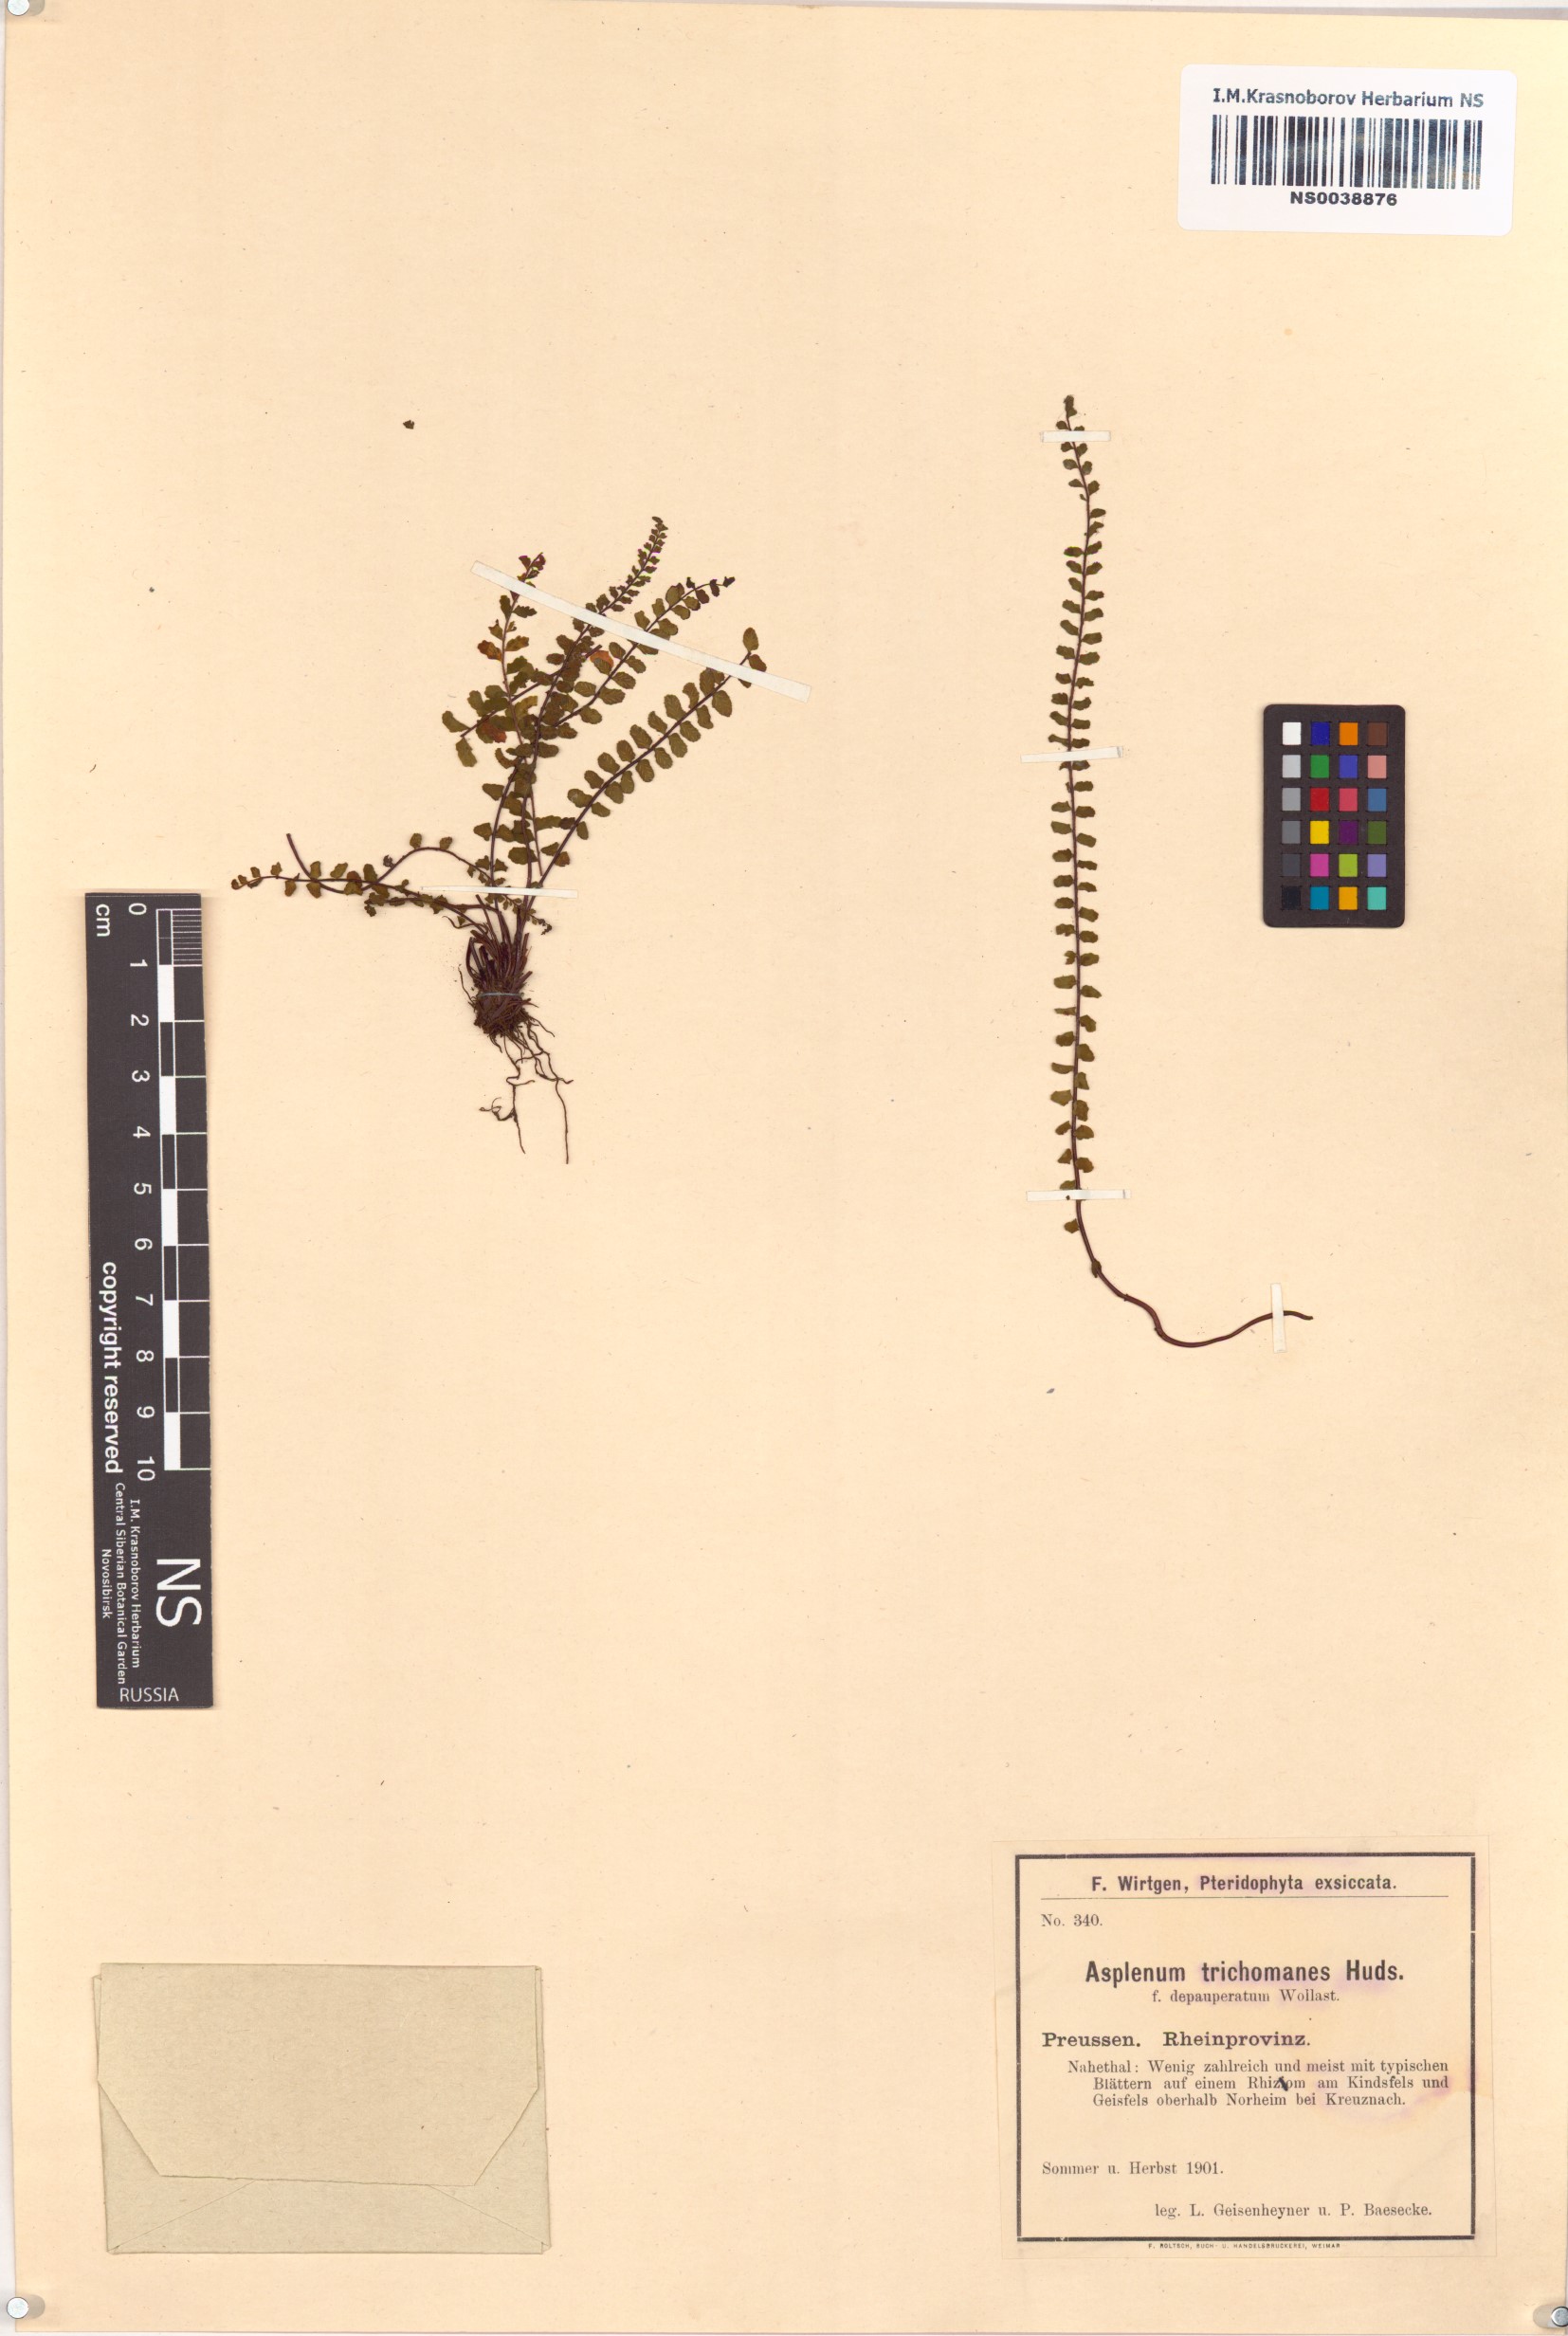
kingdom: Plantae
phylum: Tracheophyta
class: Polypodiopsida
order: Polypodiales
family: Aspleniaceae
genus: Asplenium
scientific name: Asplenium trichomanes
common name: Maidenhair spleenwort
